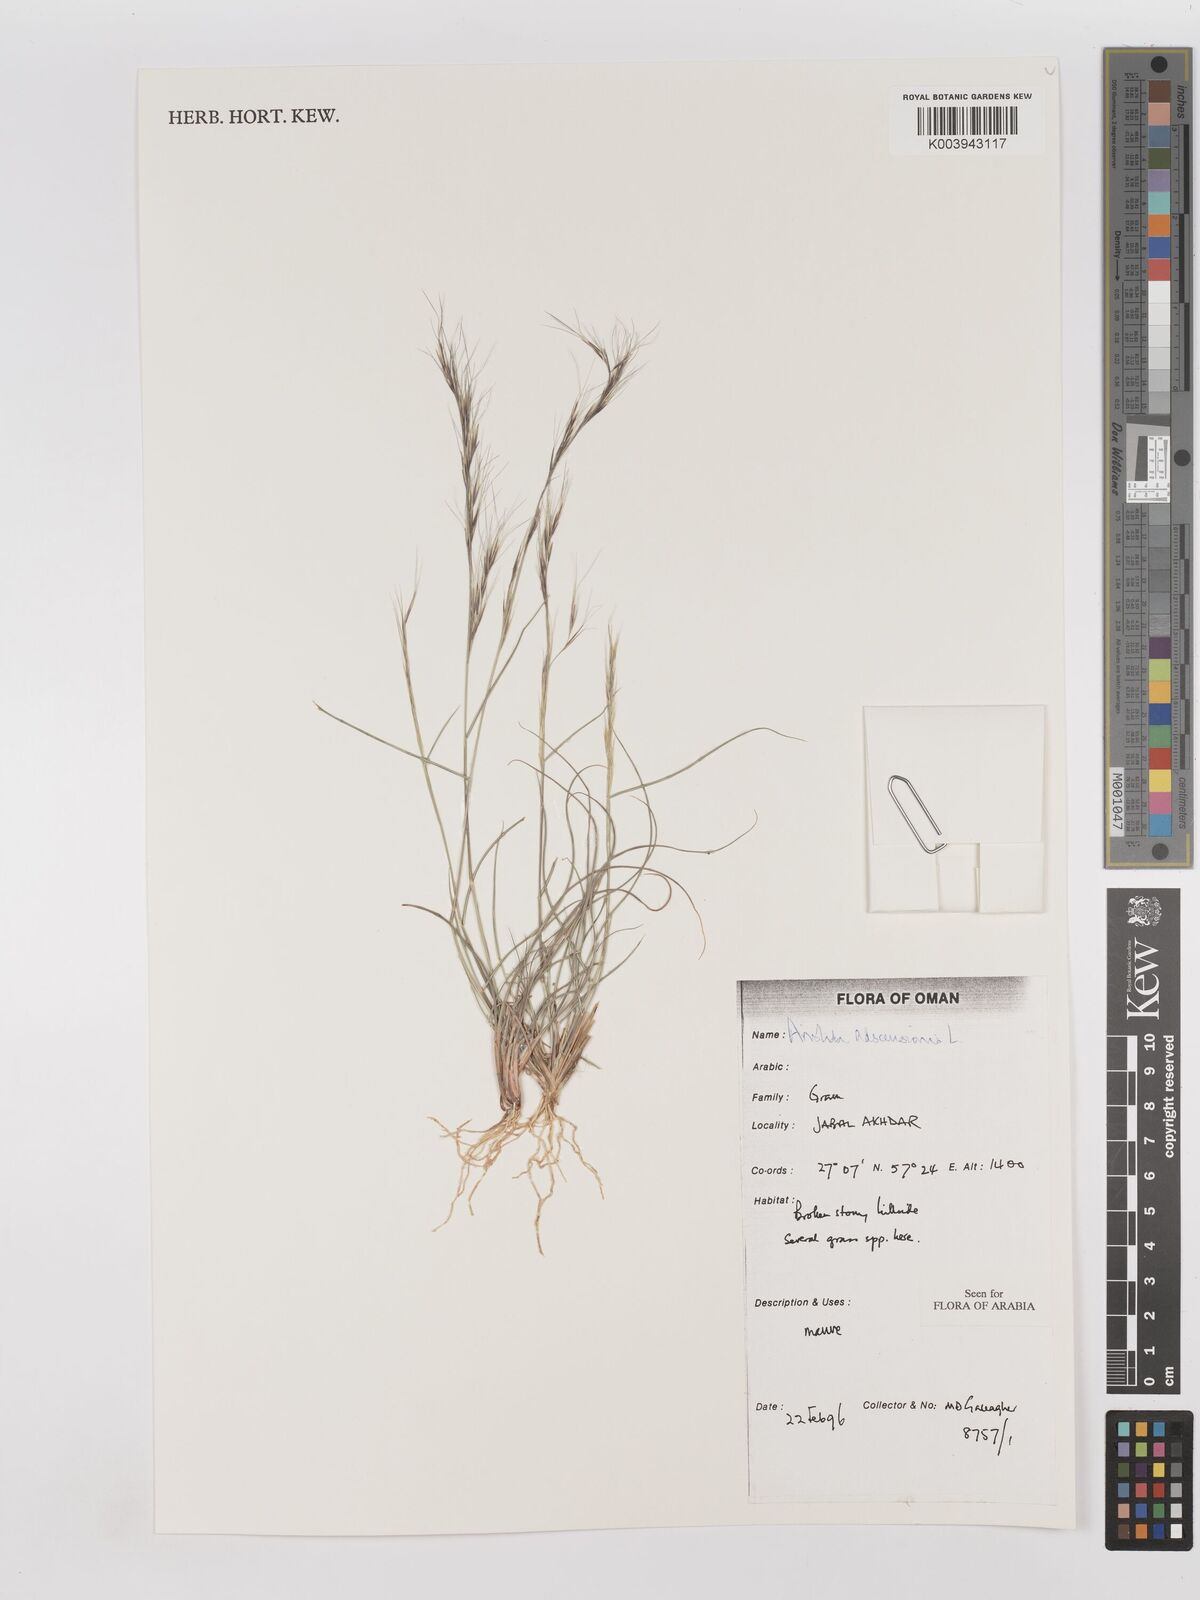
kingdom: Plantae
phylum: Tracheophyta
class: Liliopsida
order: Poales
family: Poaceae
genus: Aristida
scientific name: Aristida adscensionis
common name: Sixweeks threeawn
